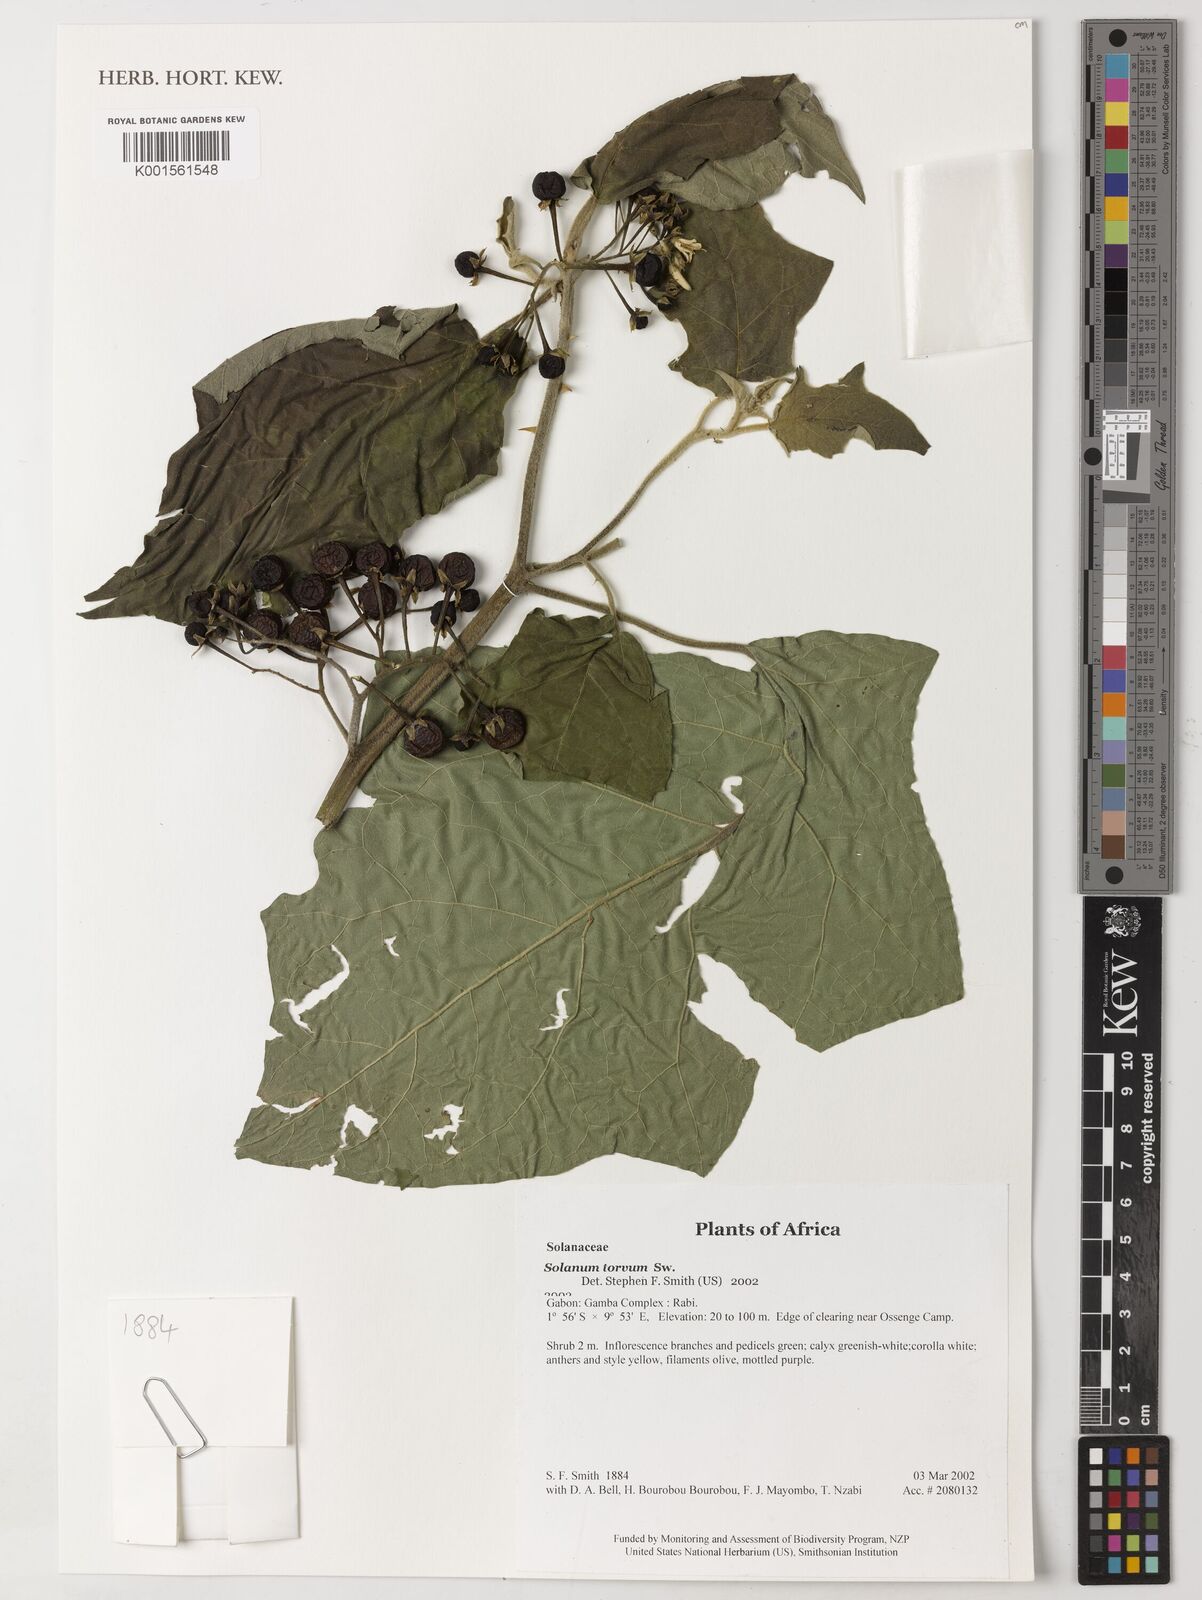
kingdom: Plantae
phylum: Tracheophyta
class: Magnoliopsida
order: Solanales
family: Solanaceae
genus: Solanum
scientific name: Solanum torvum
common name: Turkey berry
